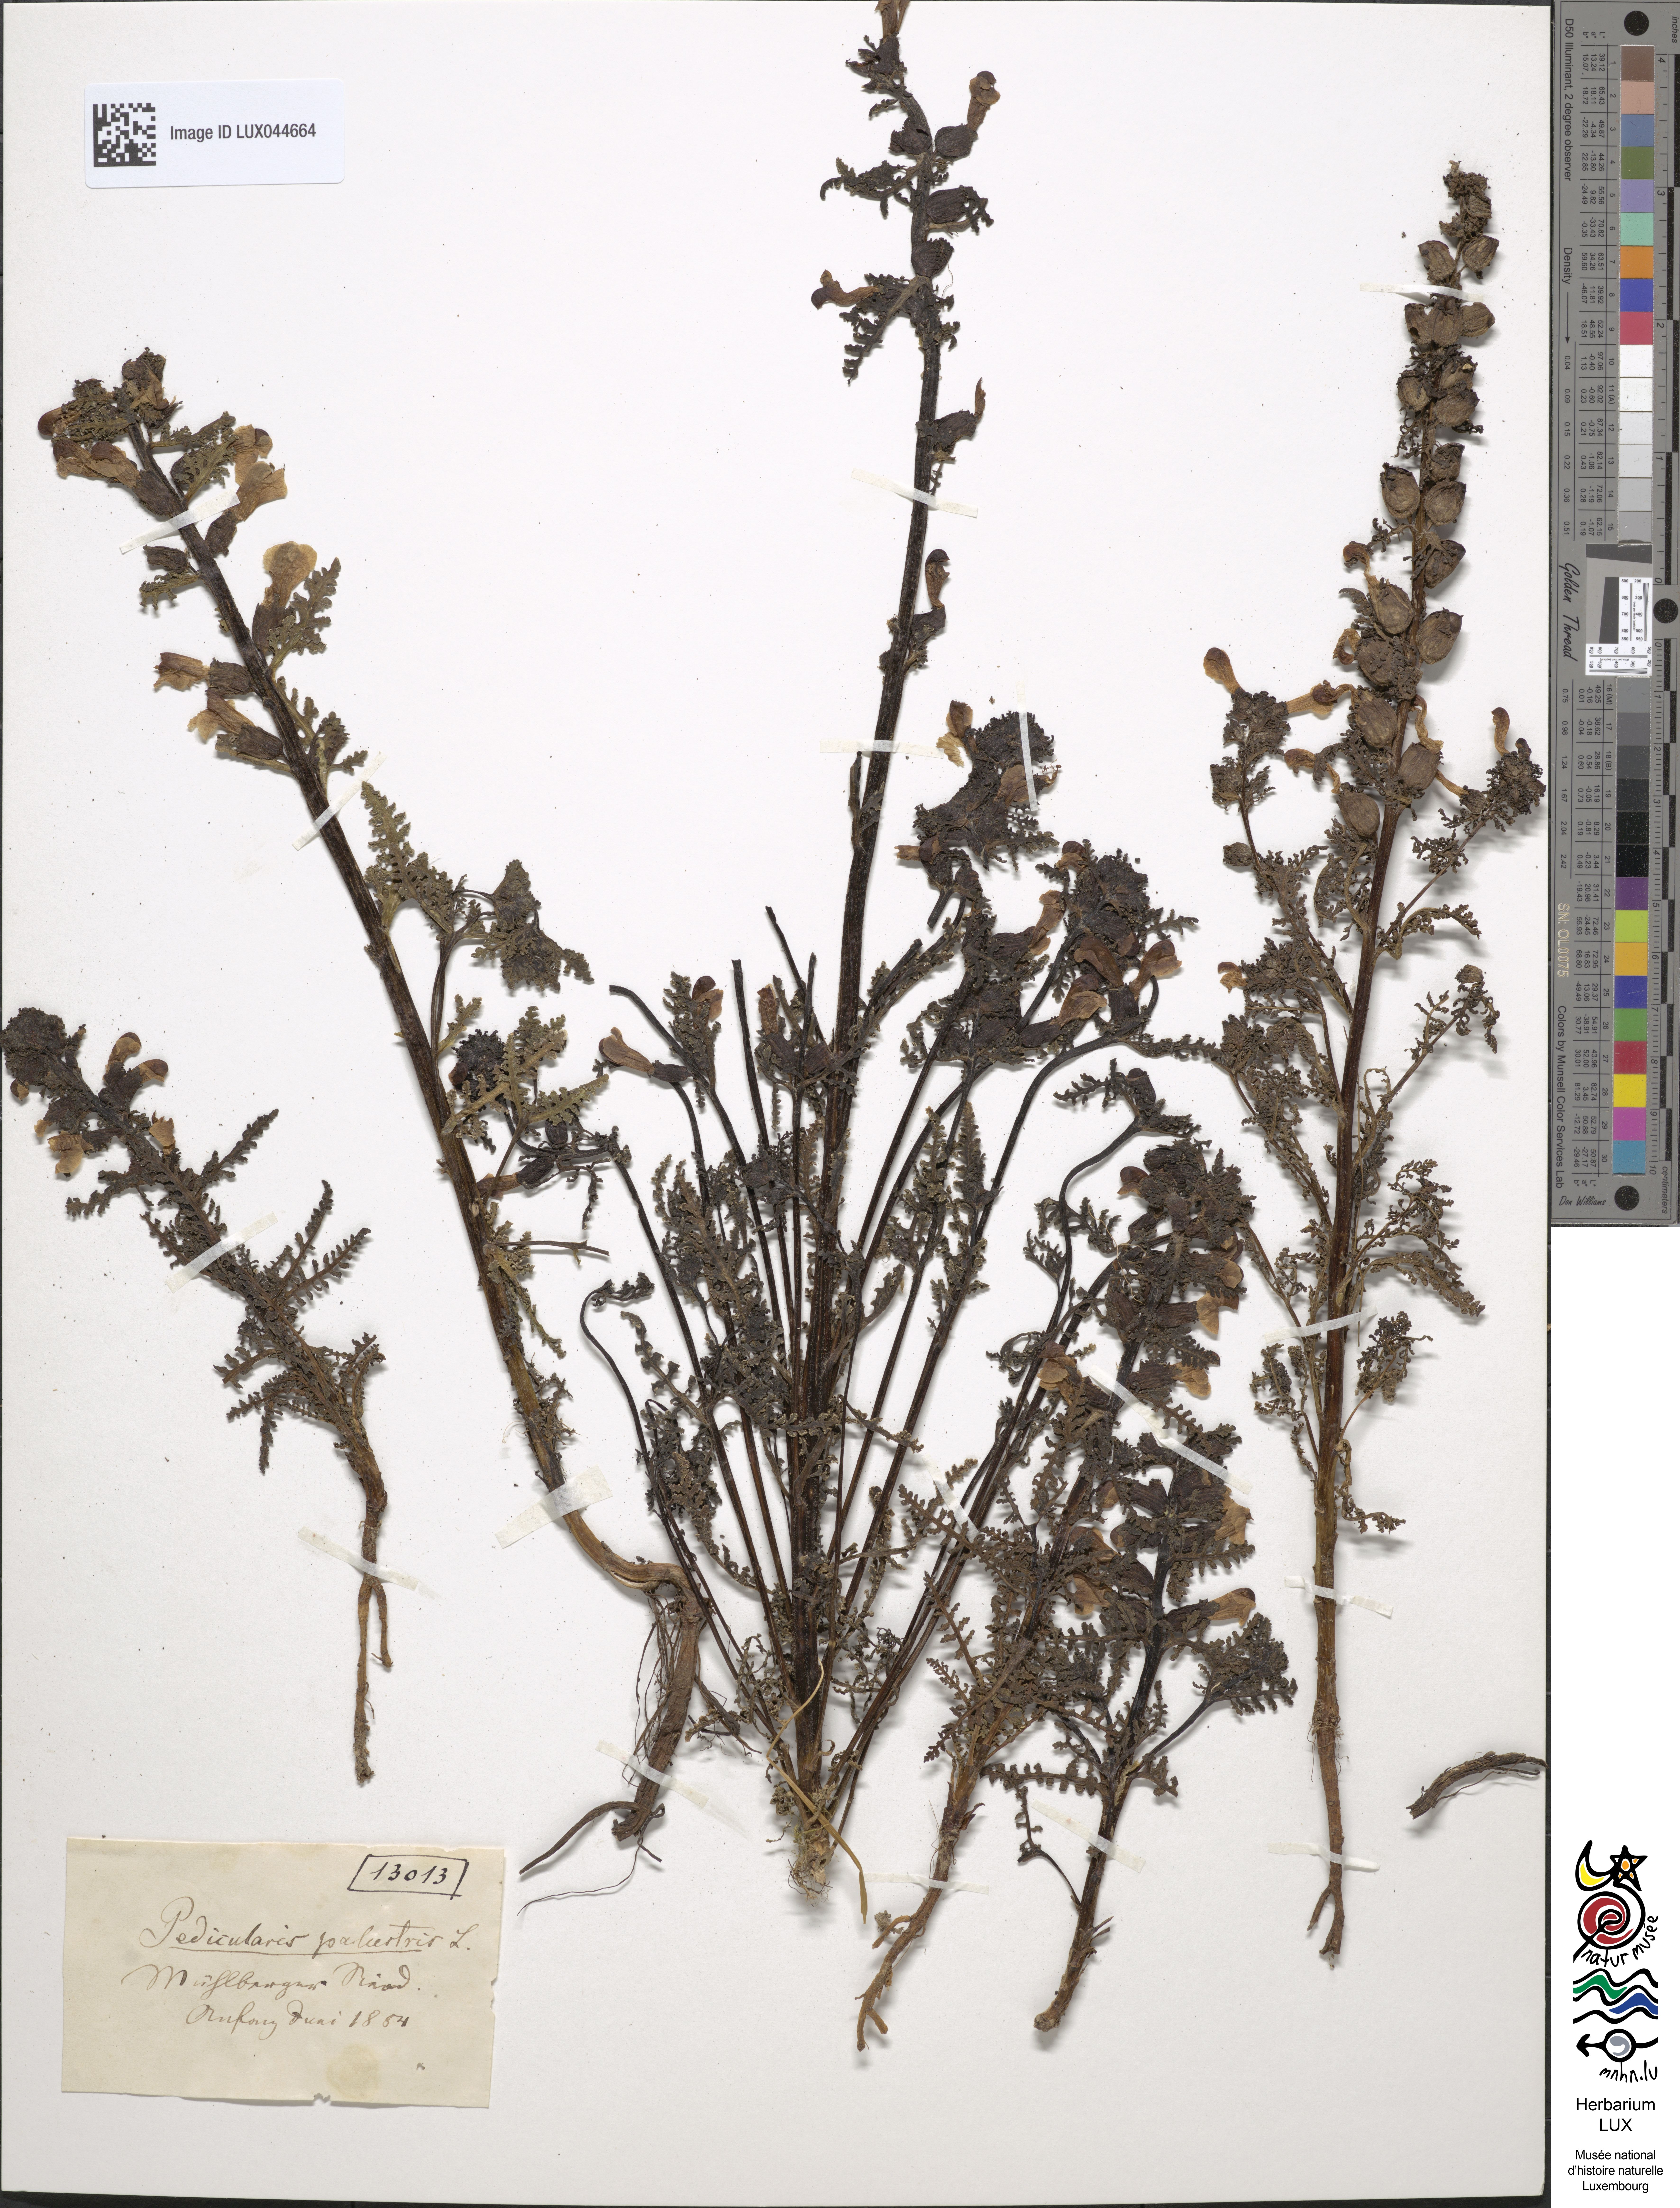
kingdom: Plantae
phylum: Tracheophyta
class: Magnoliopsida
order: Lamiales
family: Orobanchaceae
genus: Pedicularis
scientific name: Pedicularis palustris
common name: Marsh lousewort
